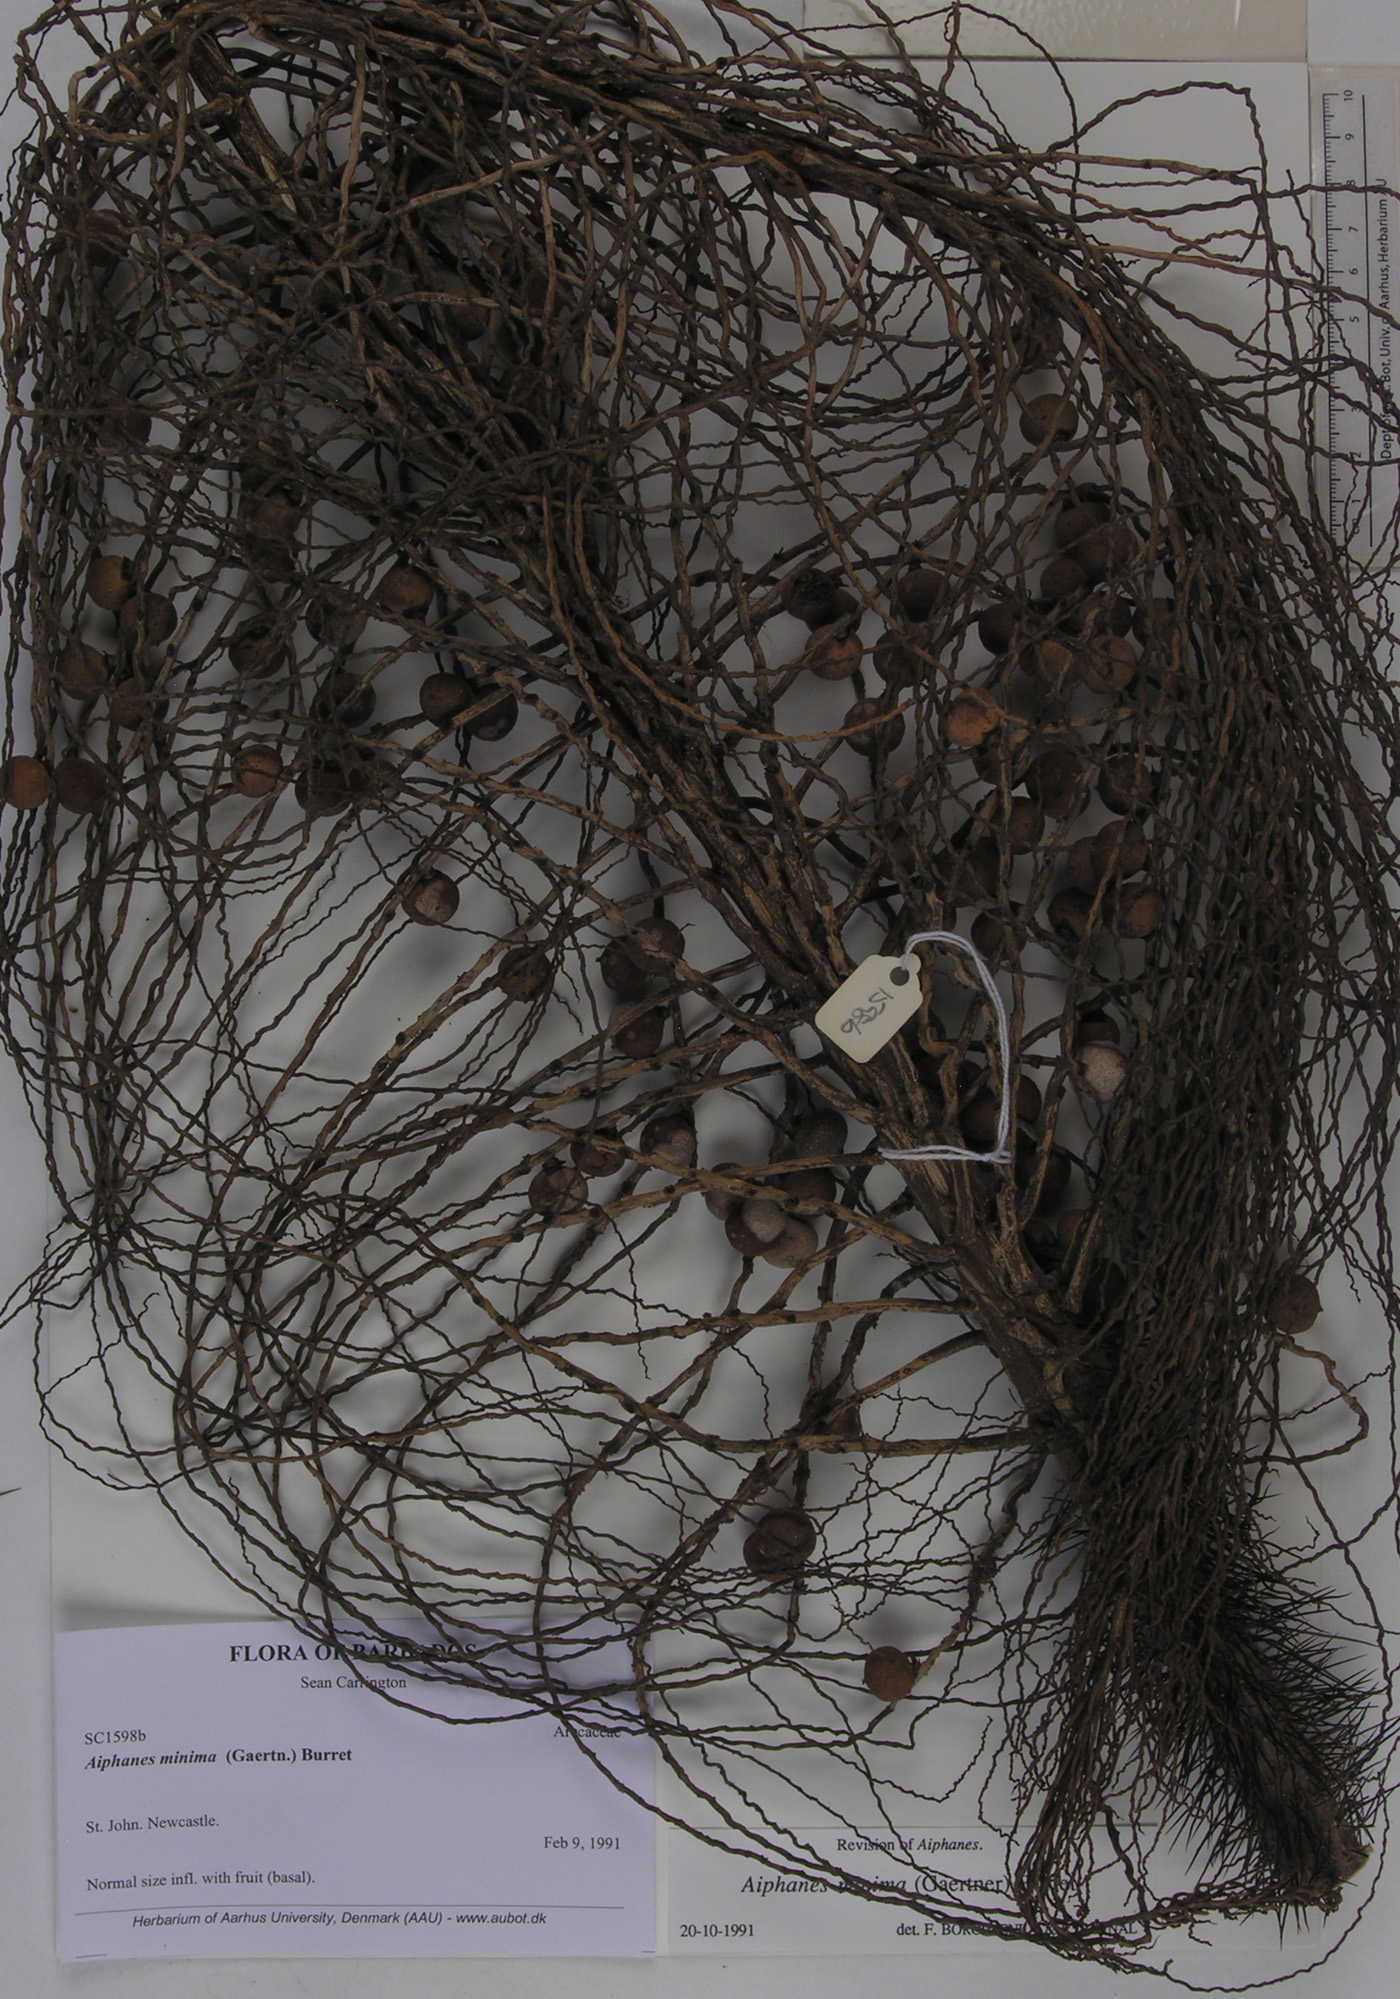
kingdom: Plantae
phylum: Tracheophyta
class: Liliopsida
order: Arecales
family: Arecaceae
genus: Aiphanes
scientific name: Aiphanes minima
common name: Grigri
